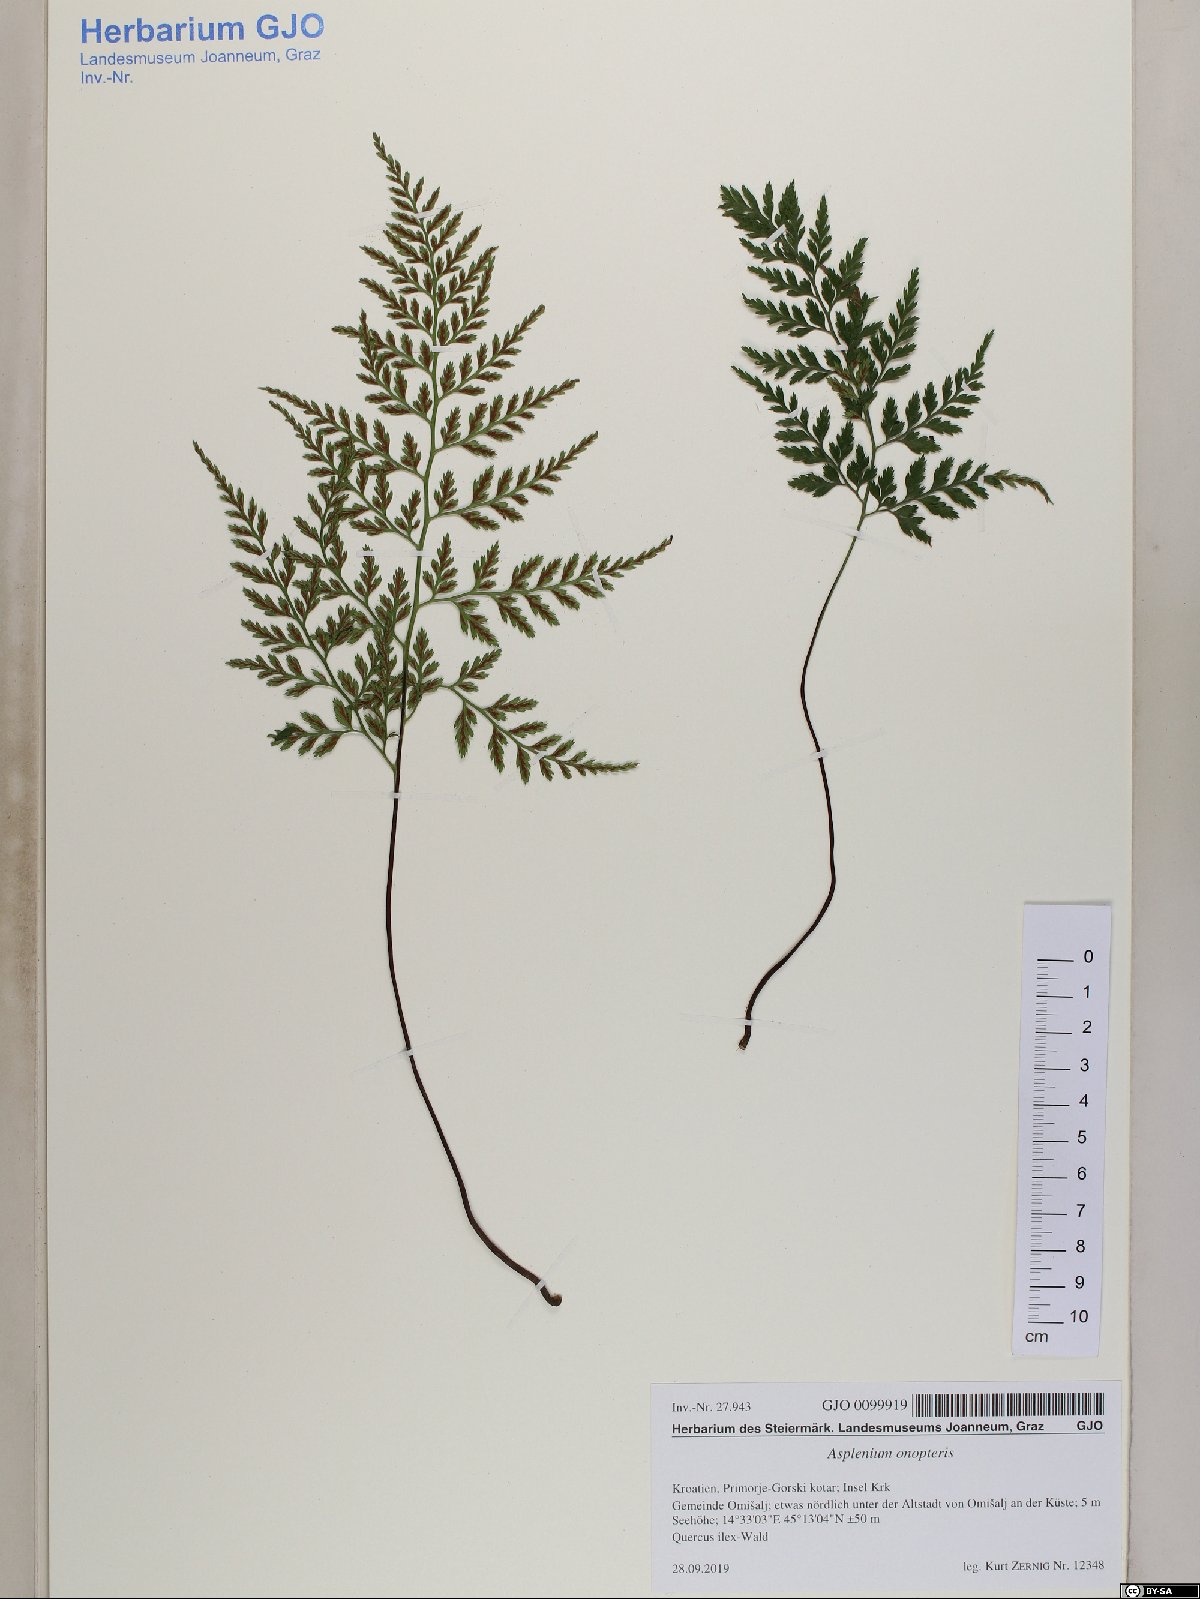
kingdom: Plantae
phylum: Tracheophyta
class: Polypodiopsida
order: Polypodiales
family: Aspleniaceae
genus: Asplenium
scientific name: Asplenium onopteris
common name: Irish spleenwort
